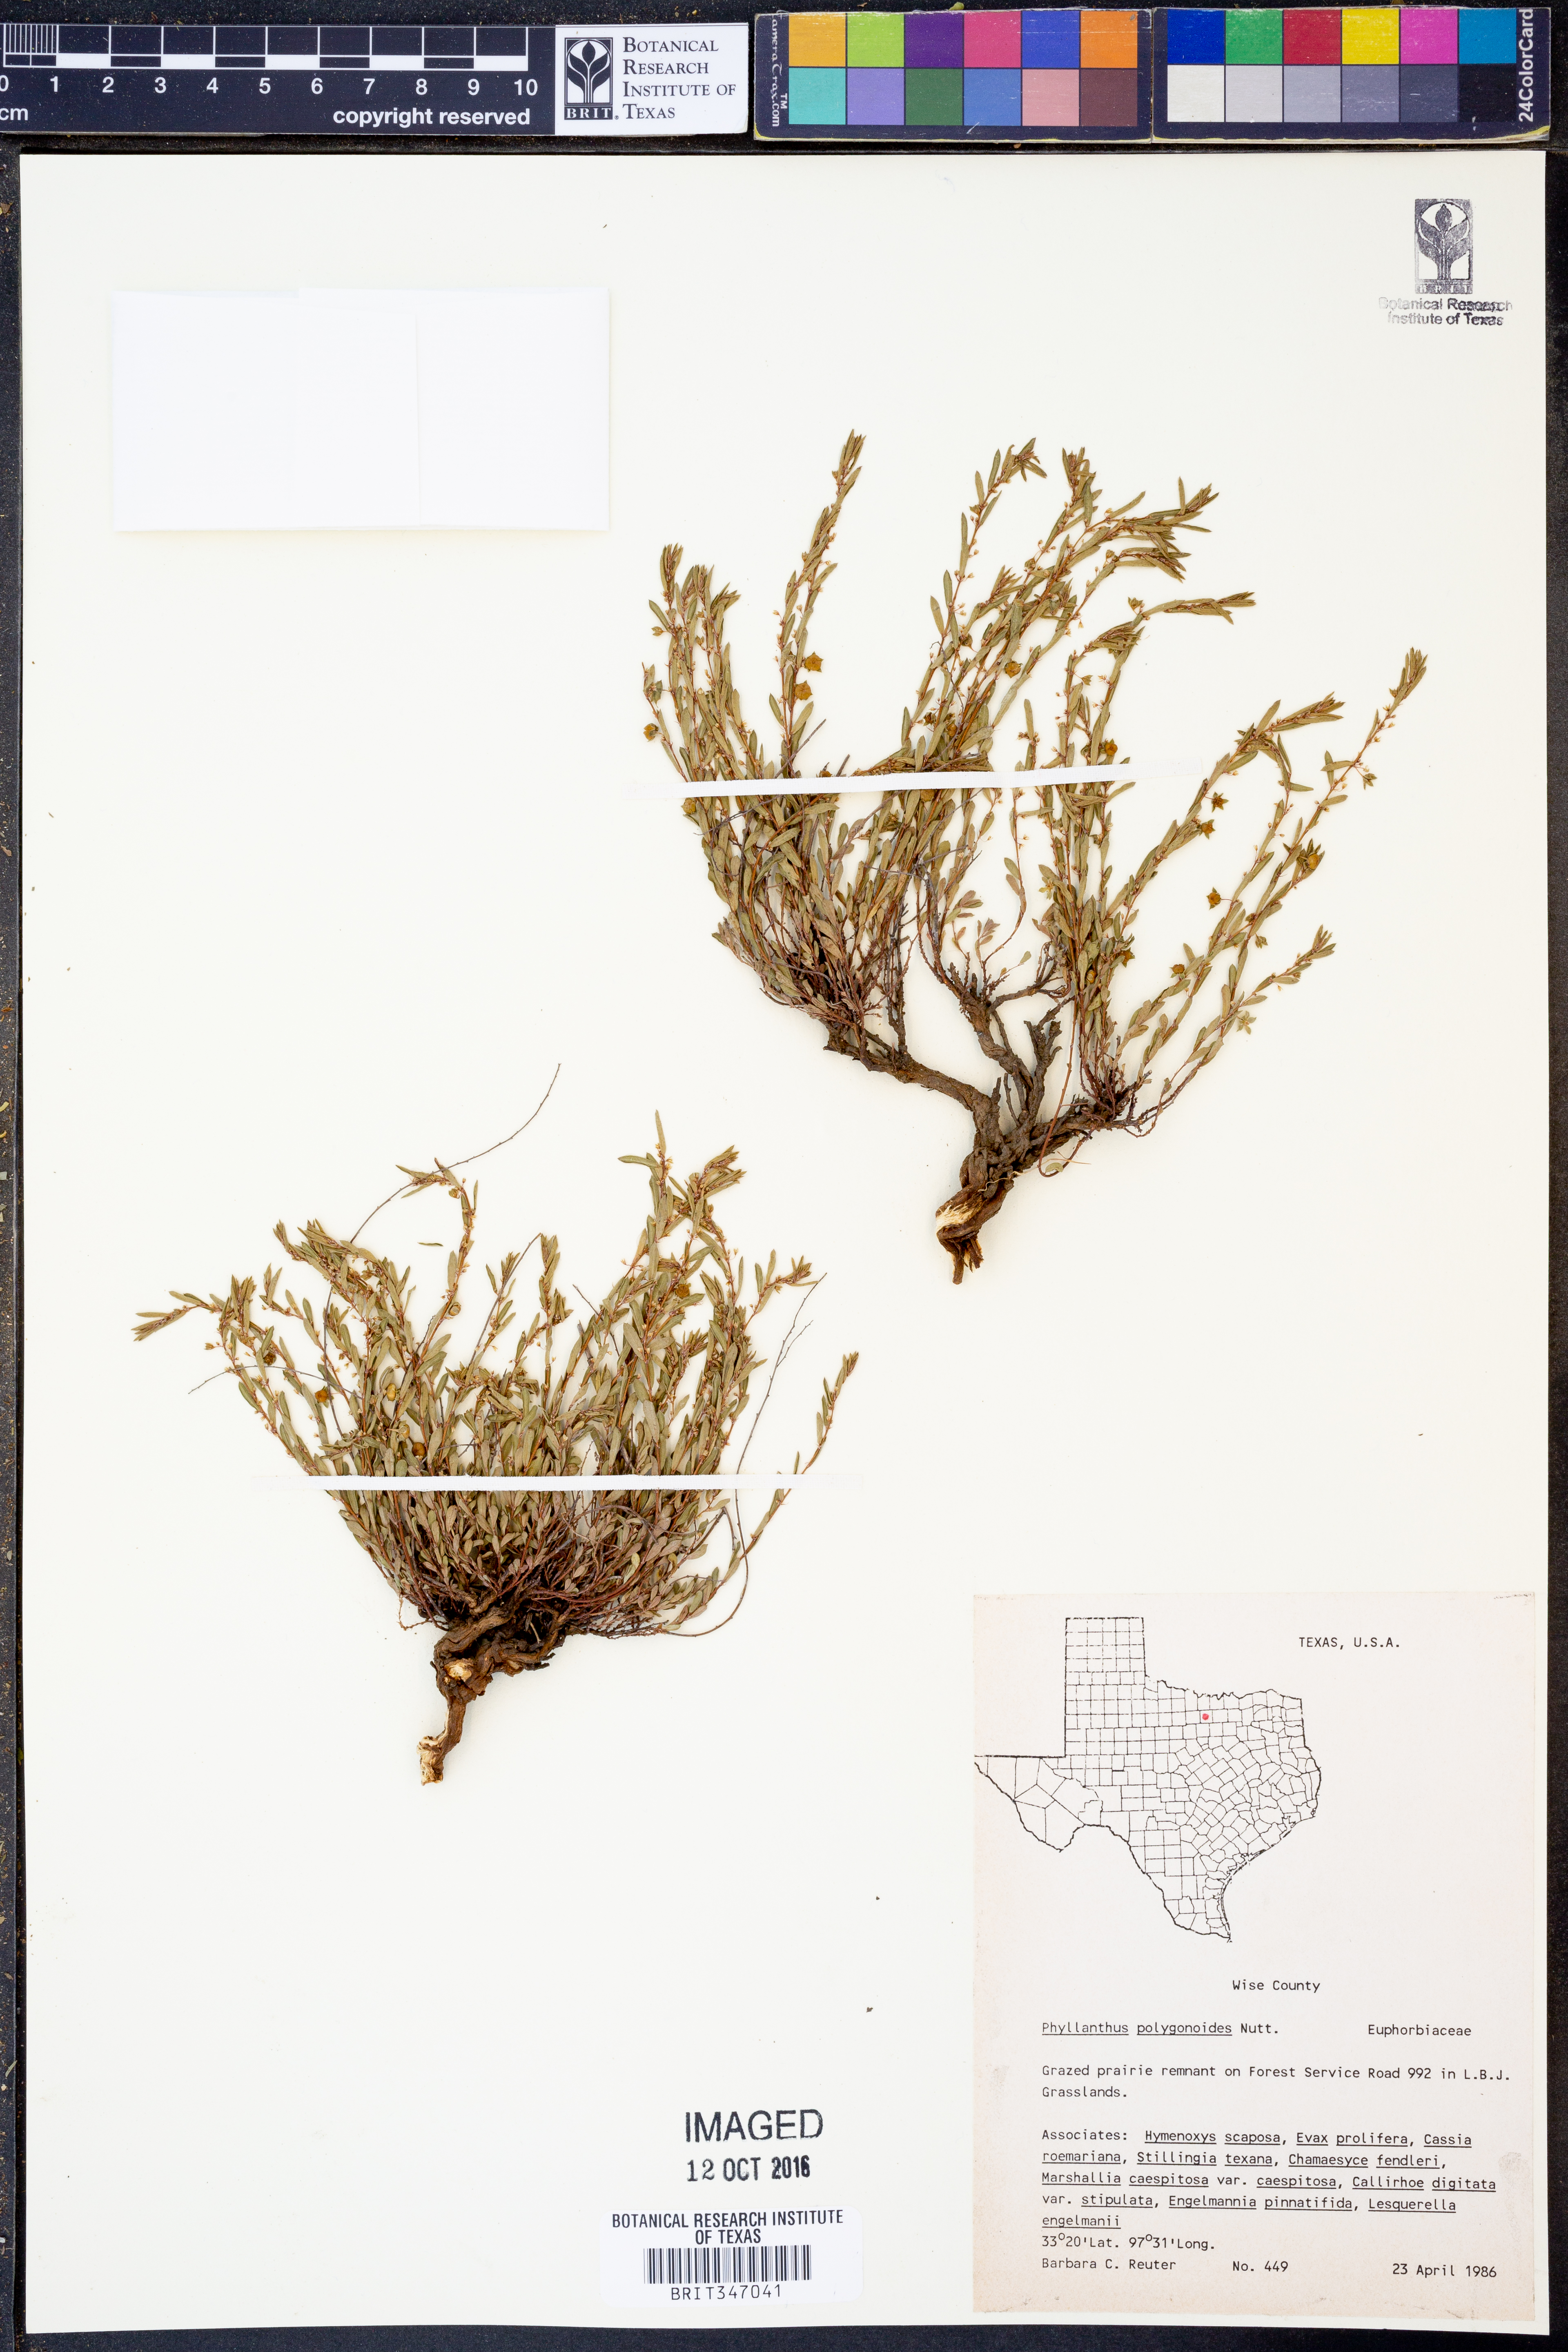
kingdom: Plantae
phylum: Tracheophyta
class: Magnoliopsida
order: Malpighiales
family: Phyllanthaceae
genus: Phyllanthus
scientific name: Phyllanthus polygonoides
